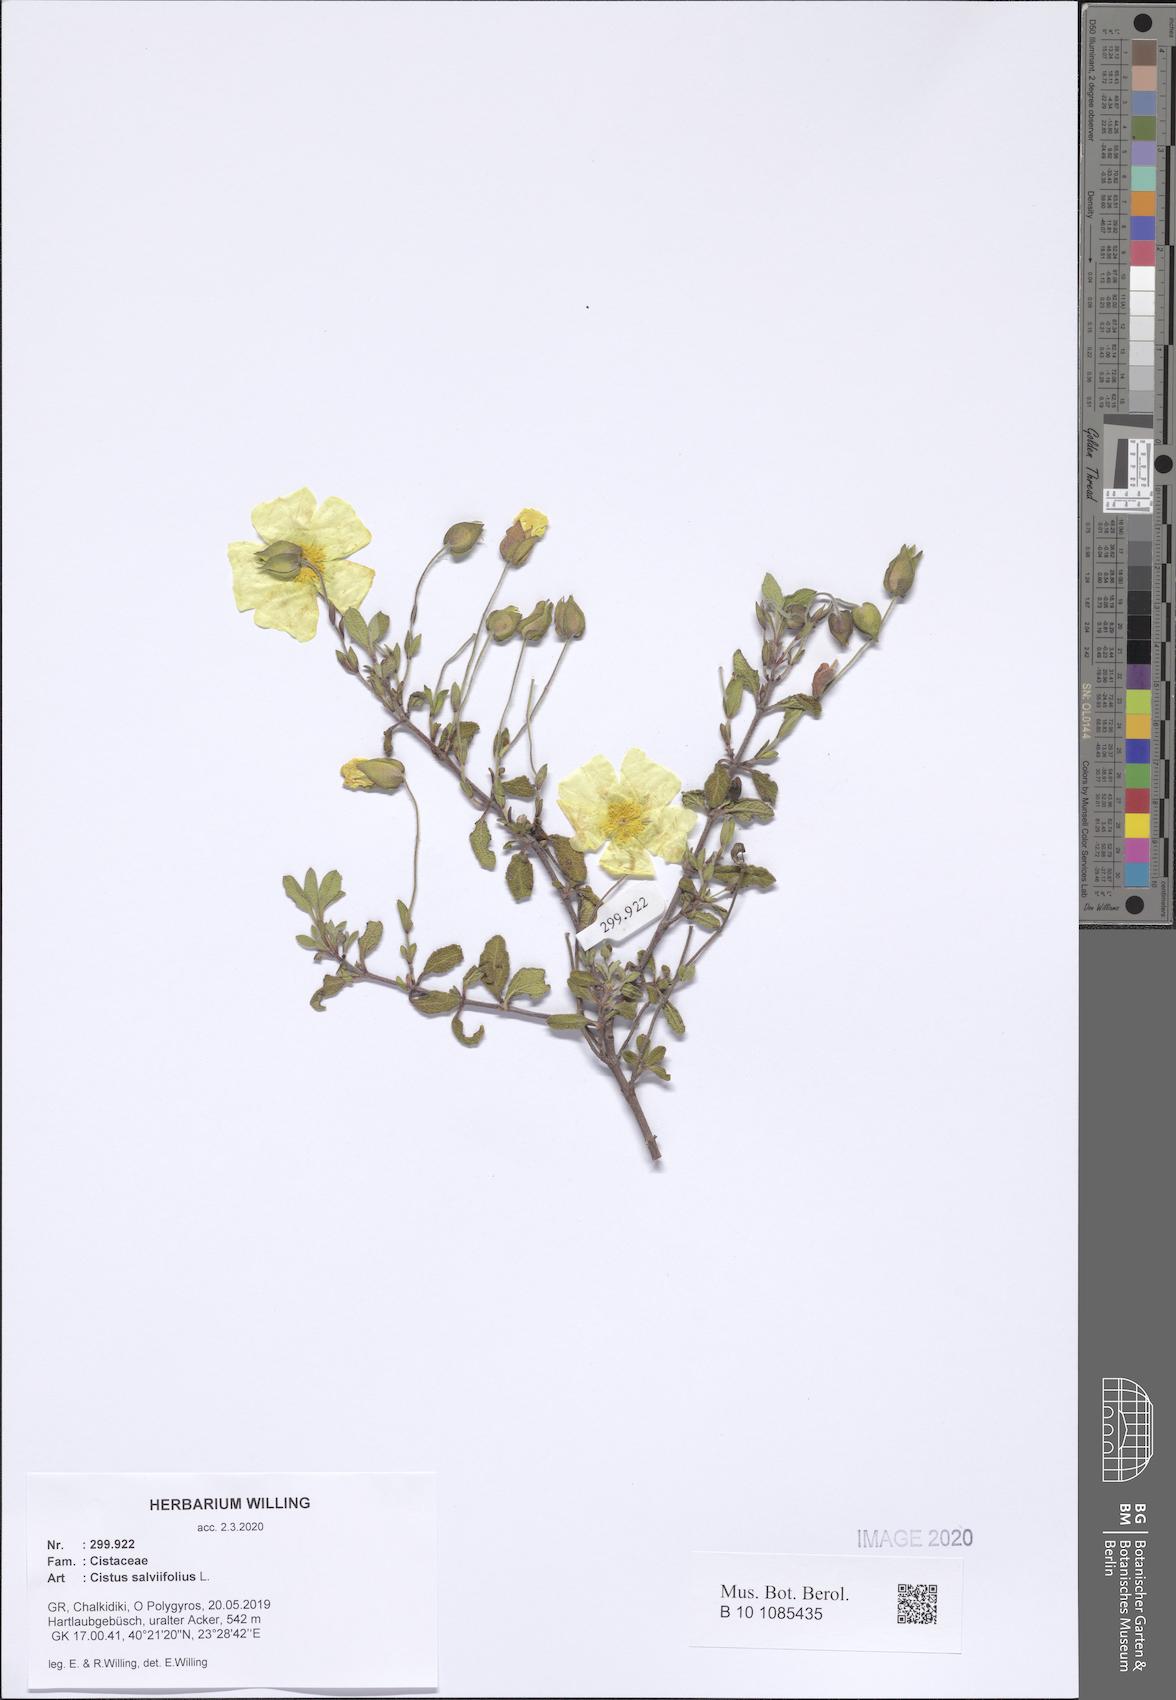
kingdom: Plantae
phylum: Tracheophyta
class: Magnoliopsida
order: Malvales
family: Cistaceae
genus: Cistus
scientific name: Cistus salviifolius
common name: Salvia cistus
